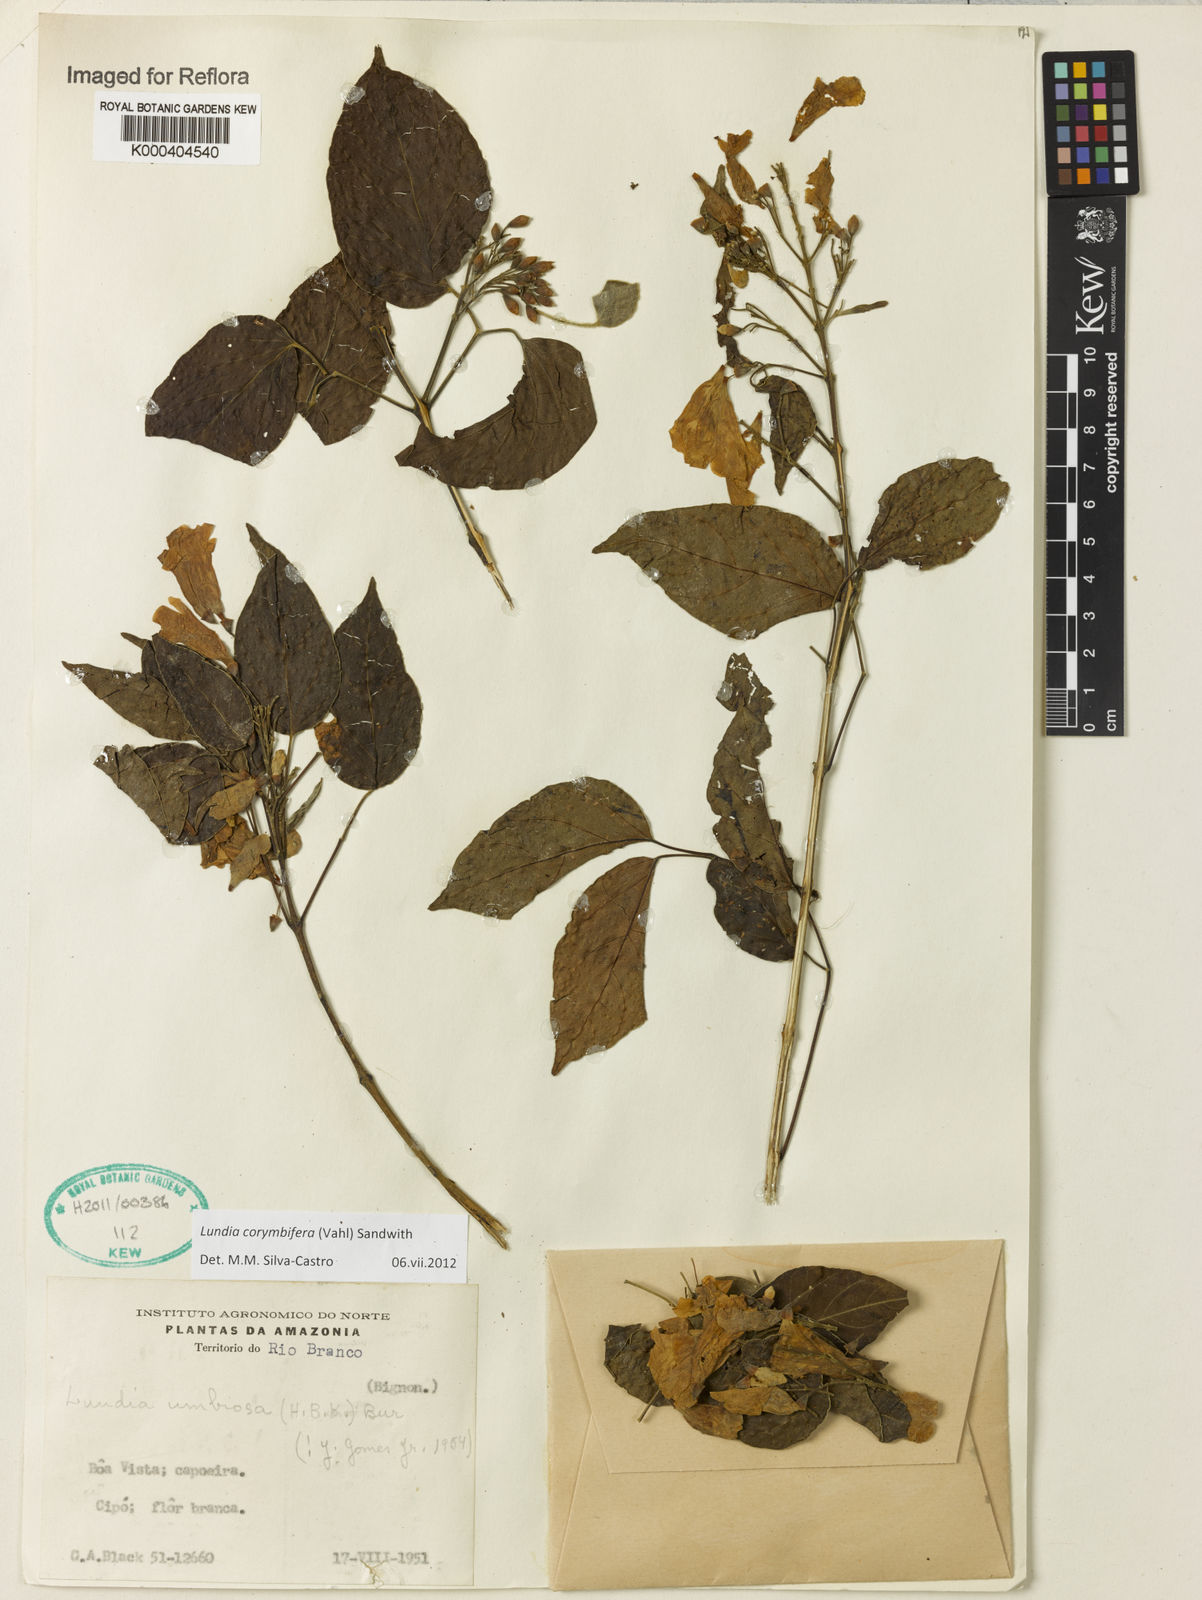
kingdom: Plantae
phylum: Tracheophyta
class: Magnoliopsida
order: Lamiales
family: Bignoniaceae
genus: Lundia
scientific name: Lundia corymbifera
